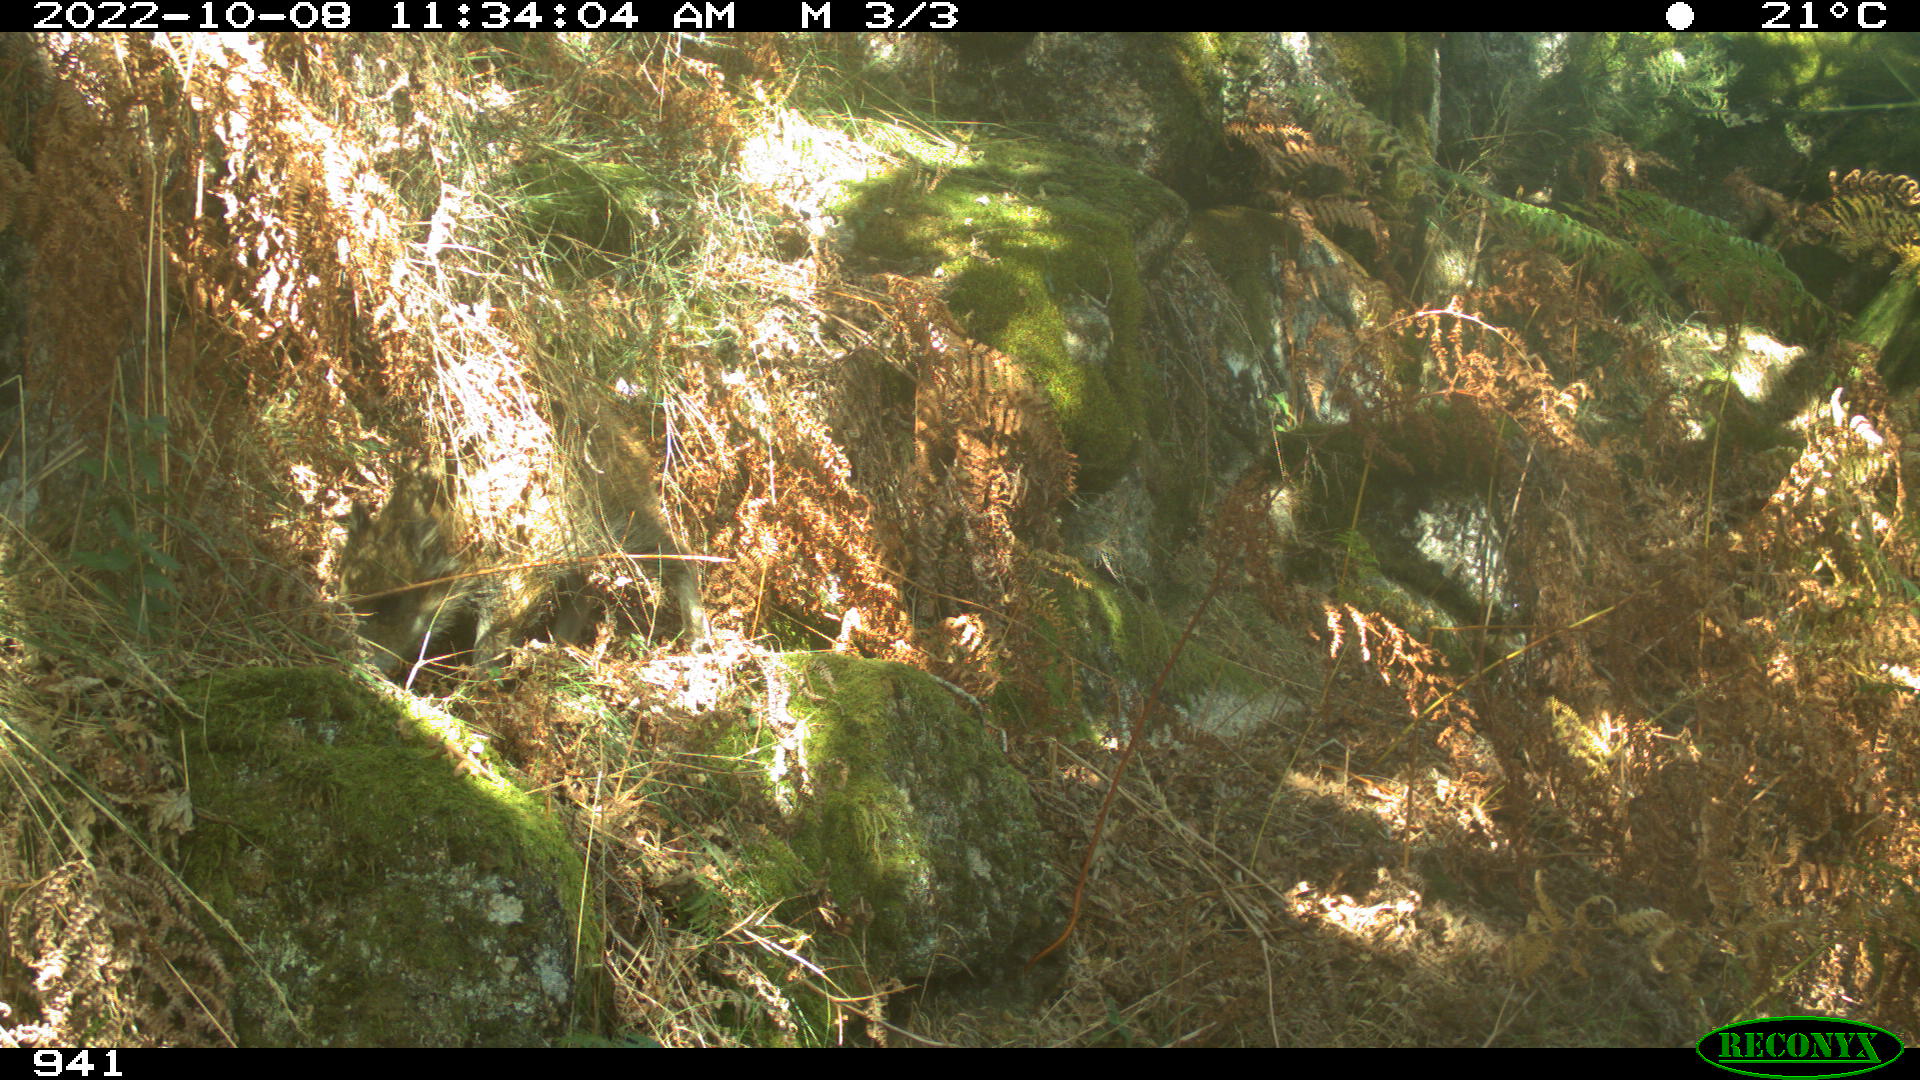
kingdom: Animalia
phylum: Chordata
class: Mammalia
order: Artiodactyla
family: Suidae
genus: Sus
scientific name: Sus scrofa
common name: Wild boar
